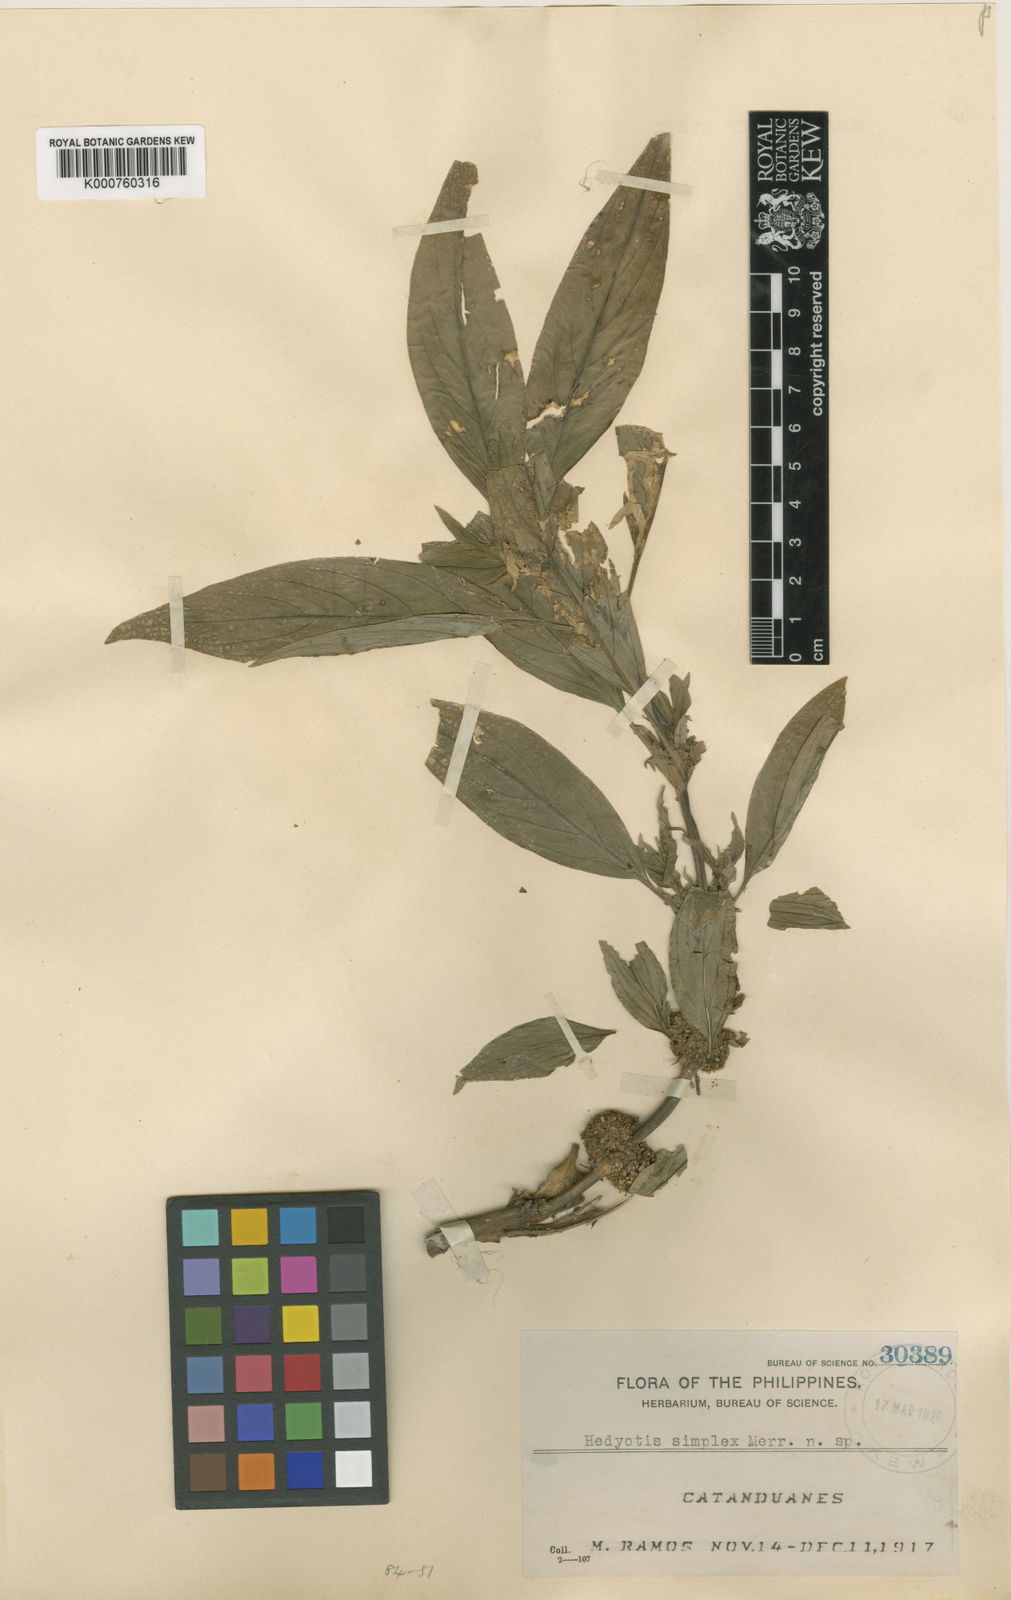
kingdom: Plantae
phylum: Tracheophyta
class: Magnoliopsida
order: Gentianales
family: Rubiaceae
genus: Hedyotis
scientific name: Hedyotis simplex
